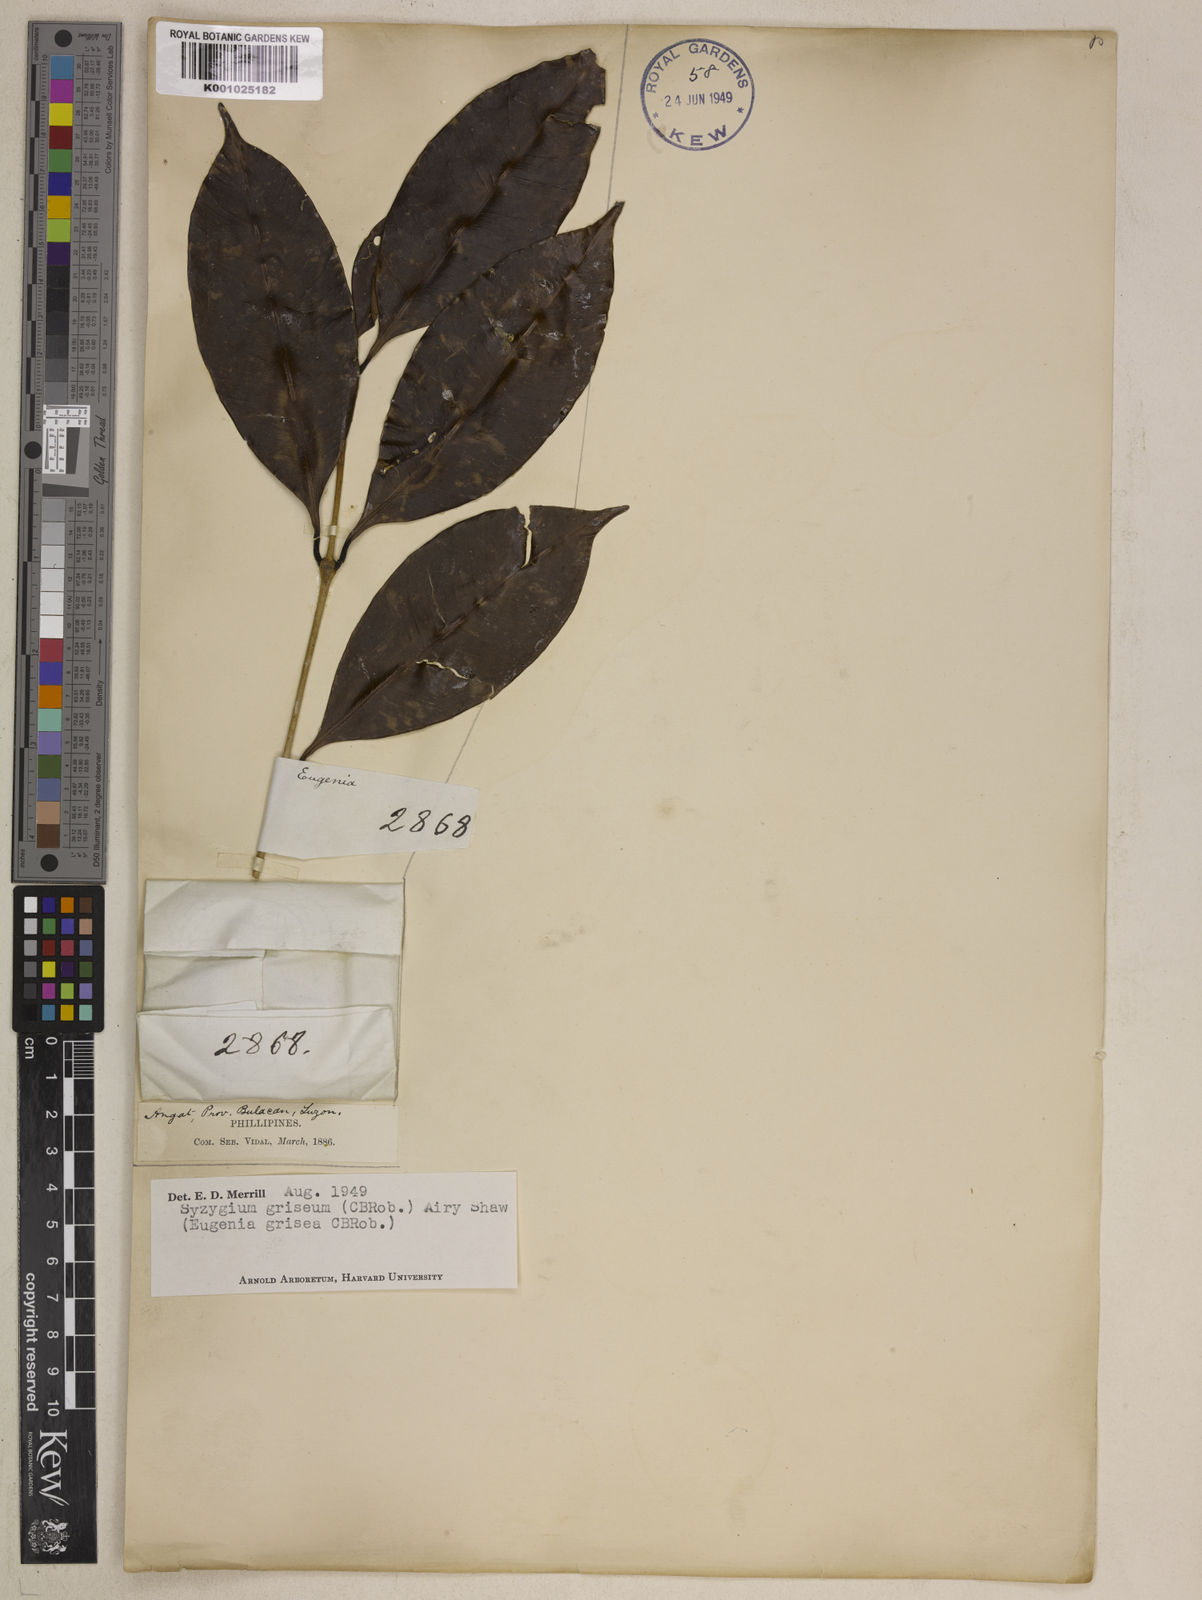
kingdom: Plantae
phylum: Tracheophyta
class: Magnoliopsida
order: Solanales
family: Solanaceae
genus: Athenaea
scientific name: Athenaea pogogena
